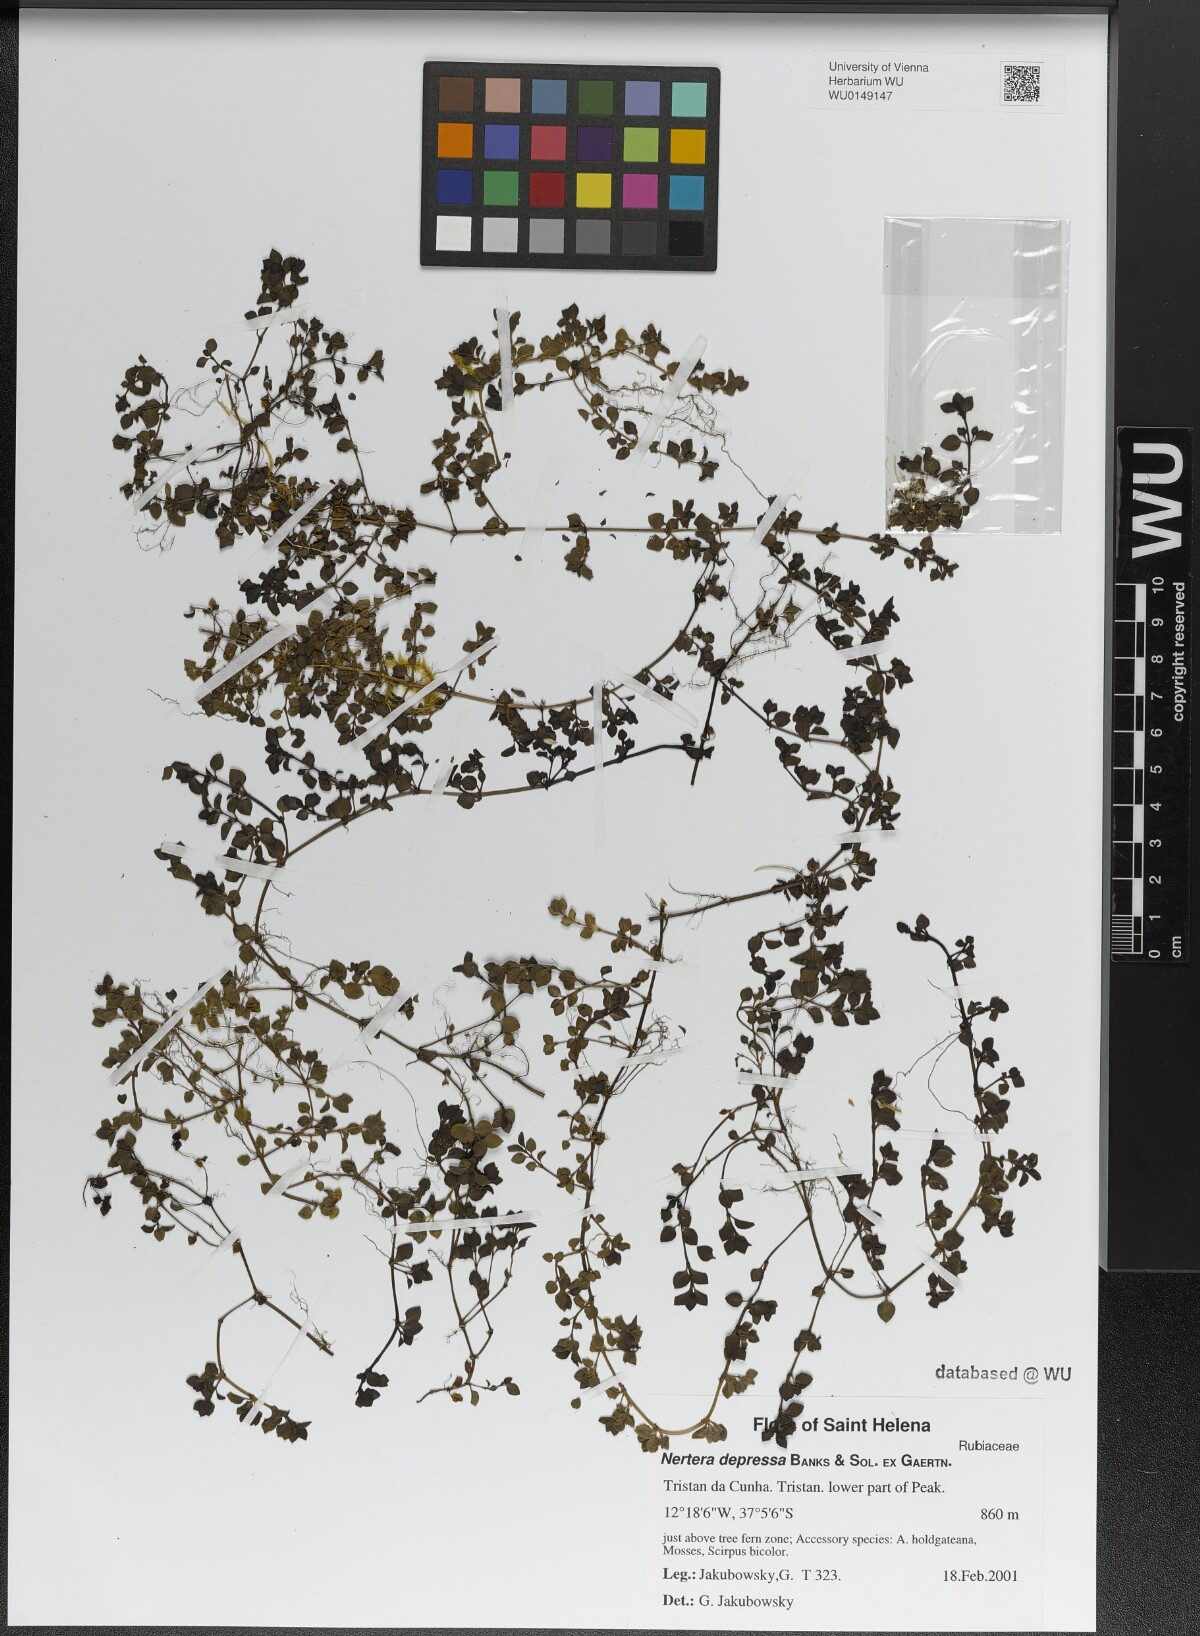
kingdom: Plantae
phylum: Tracheophyta
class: Magnoliopsida
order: Gentianales
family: Rubiaceae
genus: Nertera
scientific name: Nertera granadensis
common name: Beadplant
